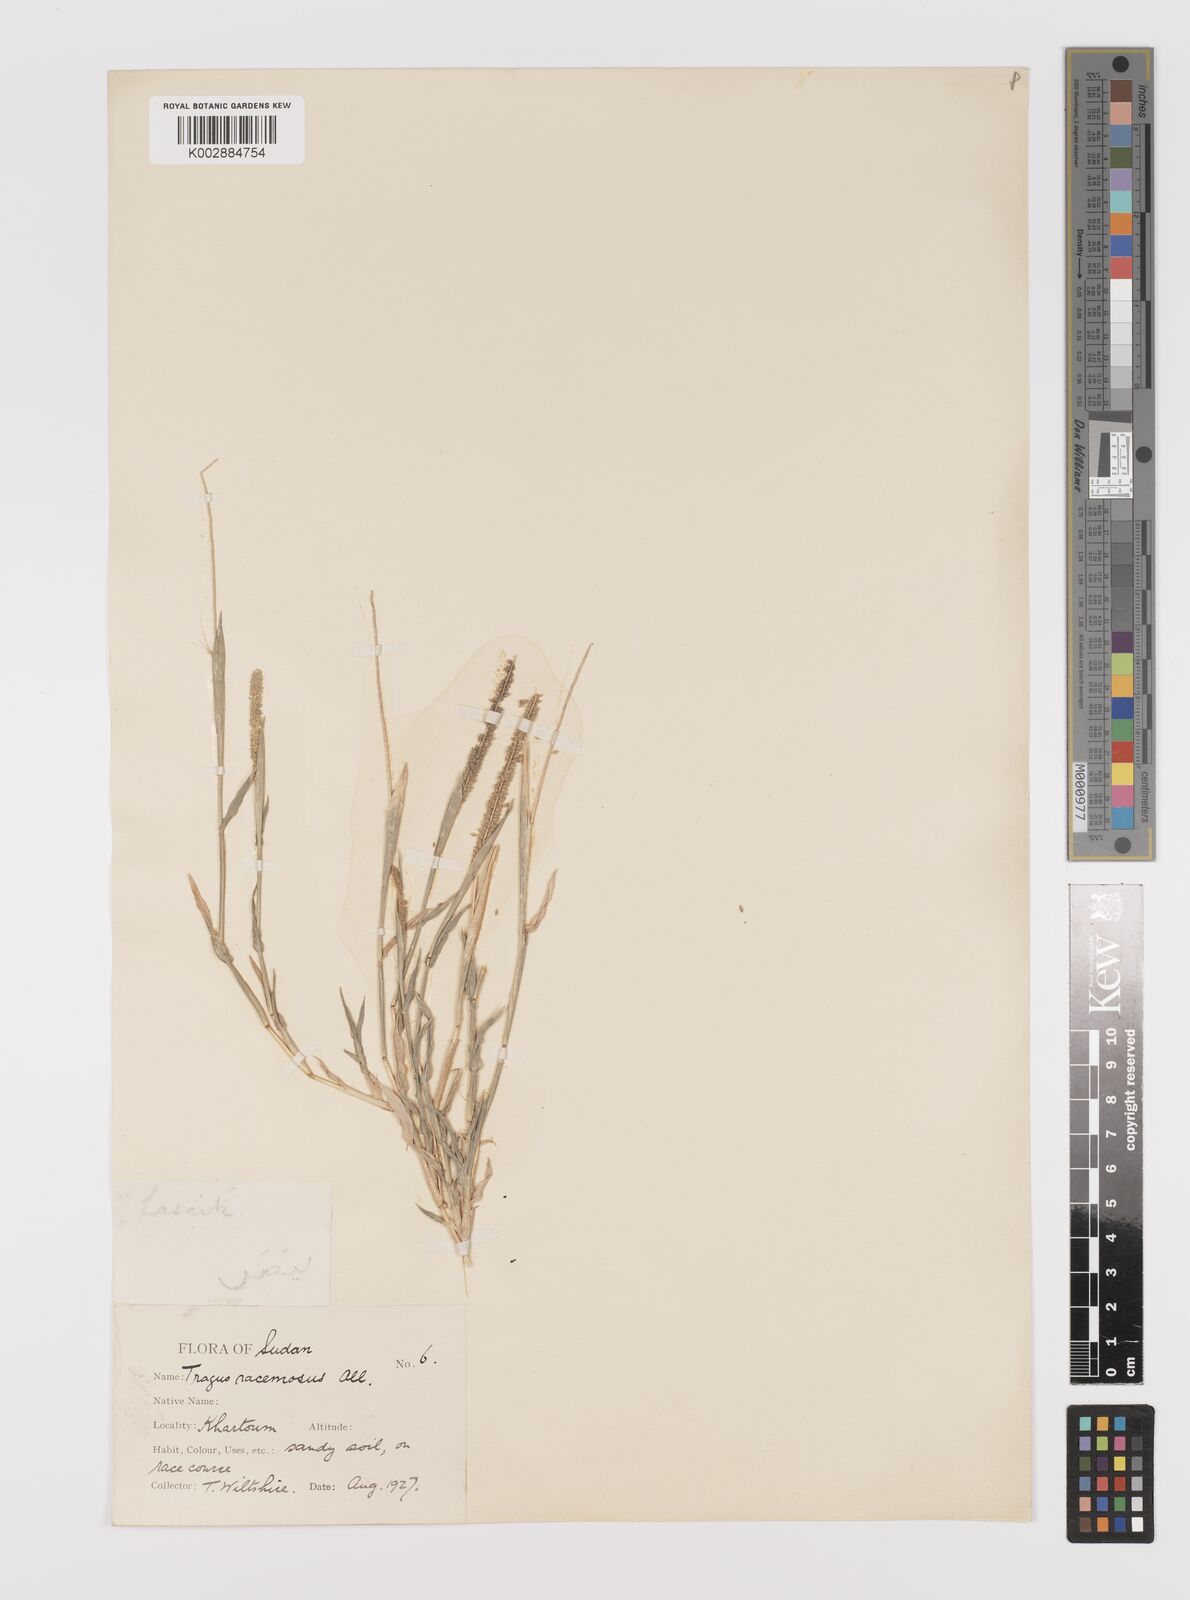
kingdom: Plantae
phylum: Tracheophyta
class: Liliopsida
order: Poales
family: Poaceae
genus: Tragus
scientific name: Tragus berteronianus
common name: African bur-grass
